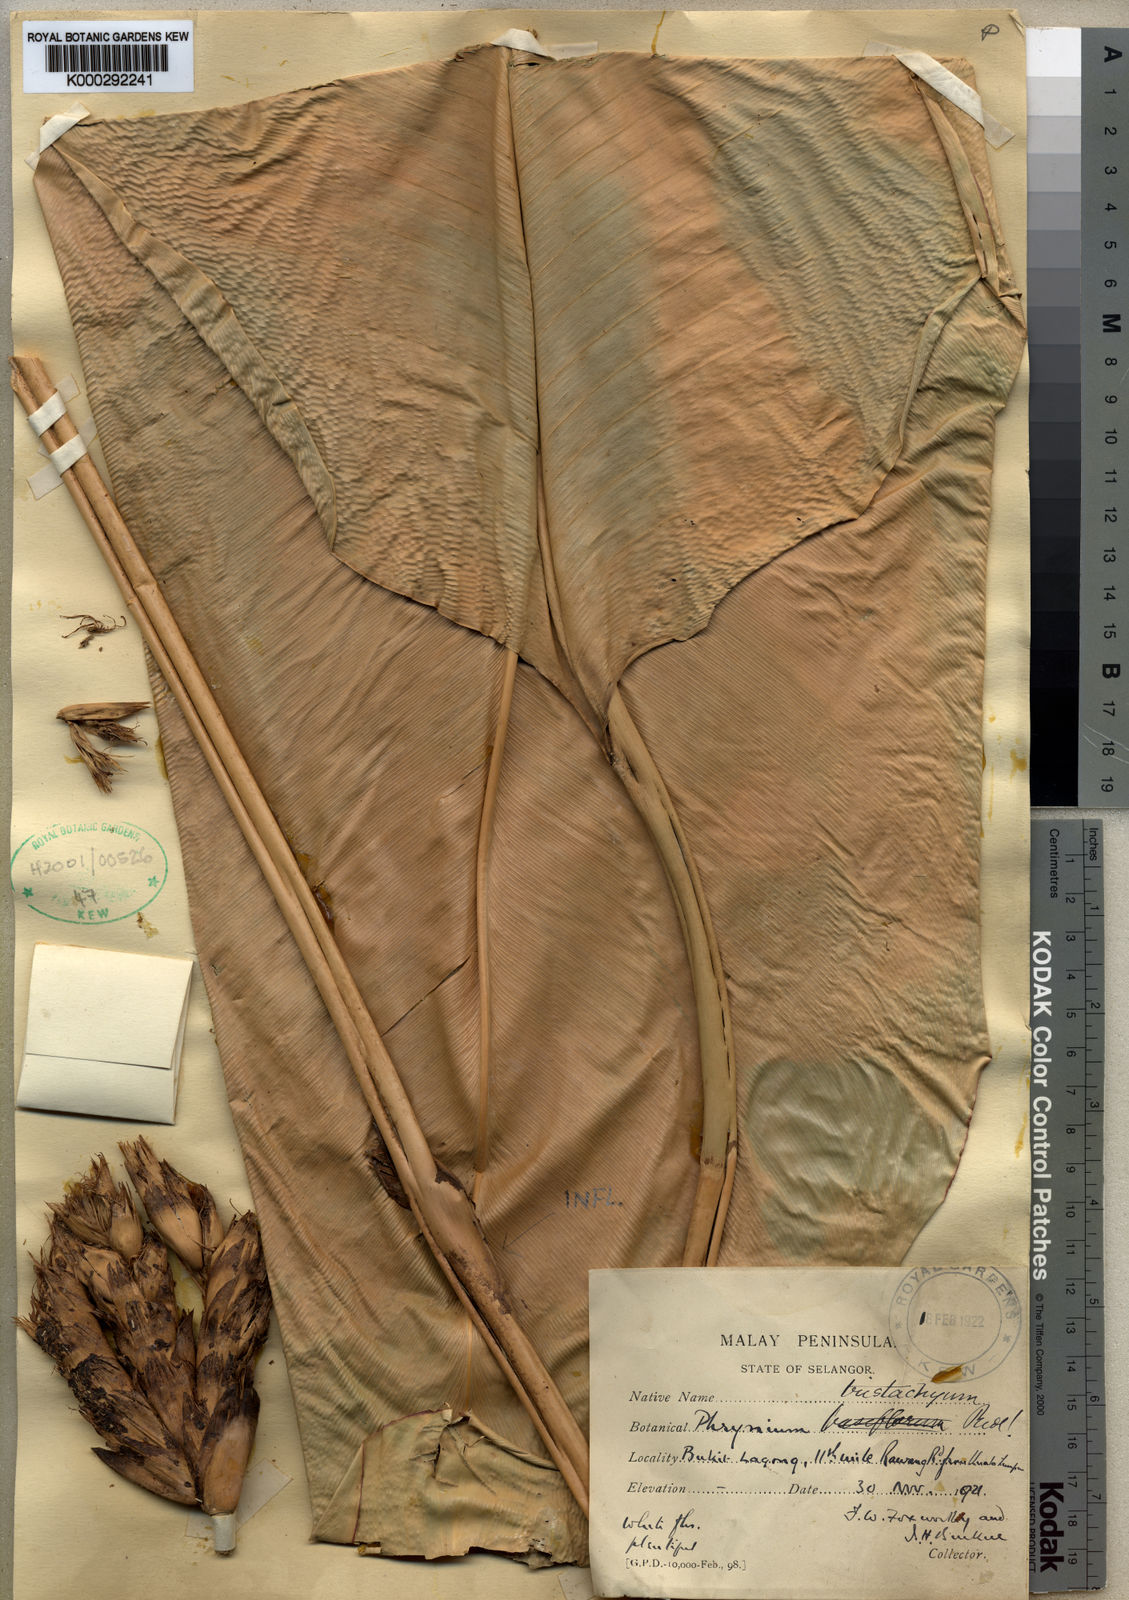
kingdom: Plantae
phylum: Tracheophyta
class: Liliopsida
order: Zingiberales
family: Marantaceae
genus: Phrynium
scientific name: Phrynium tristachyum
